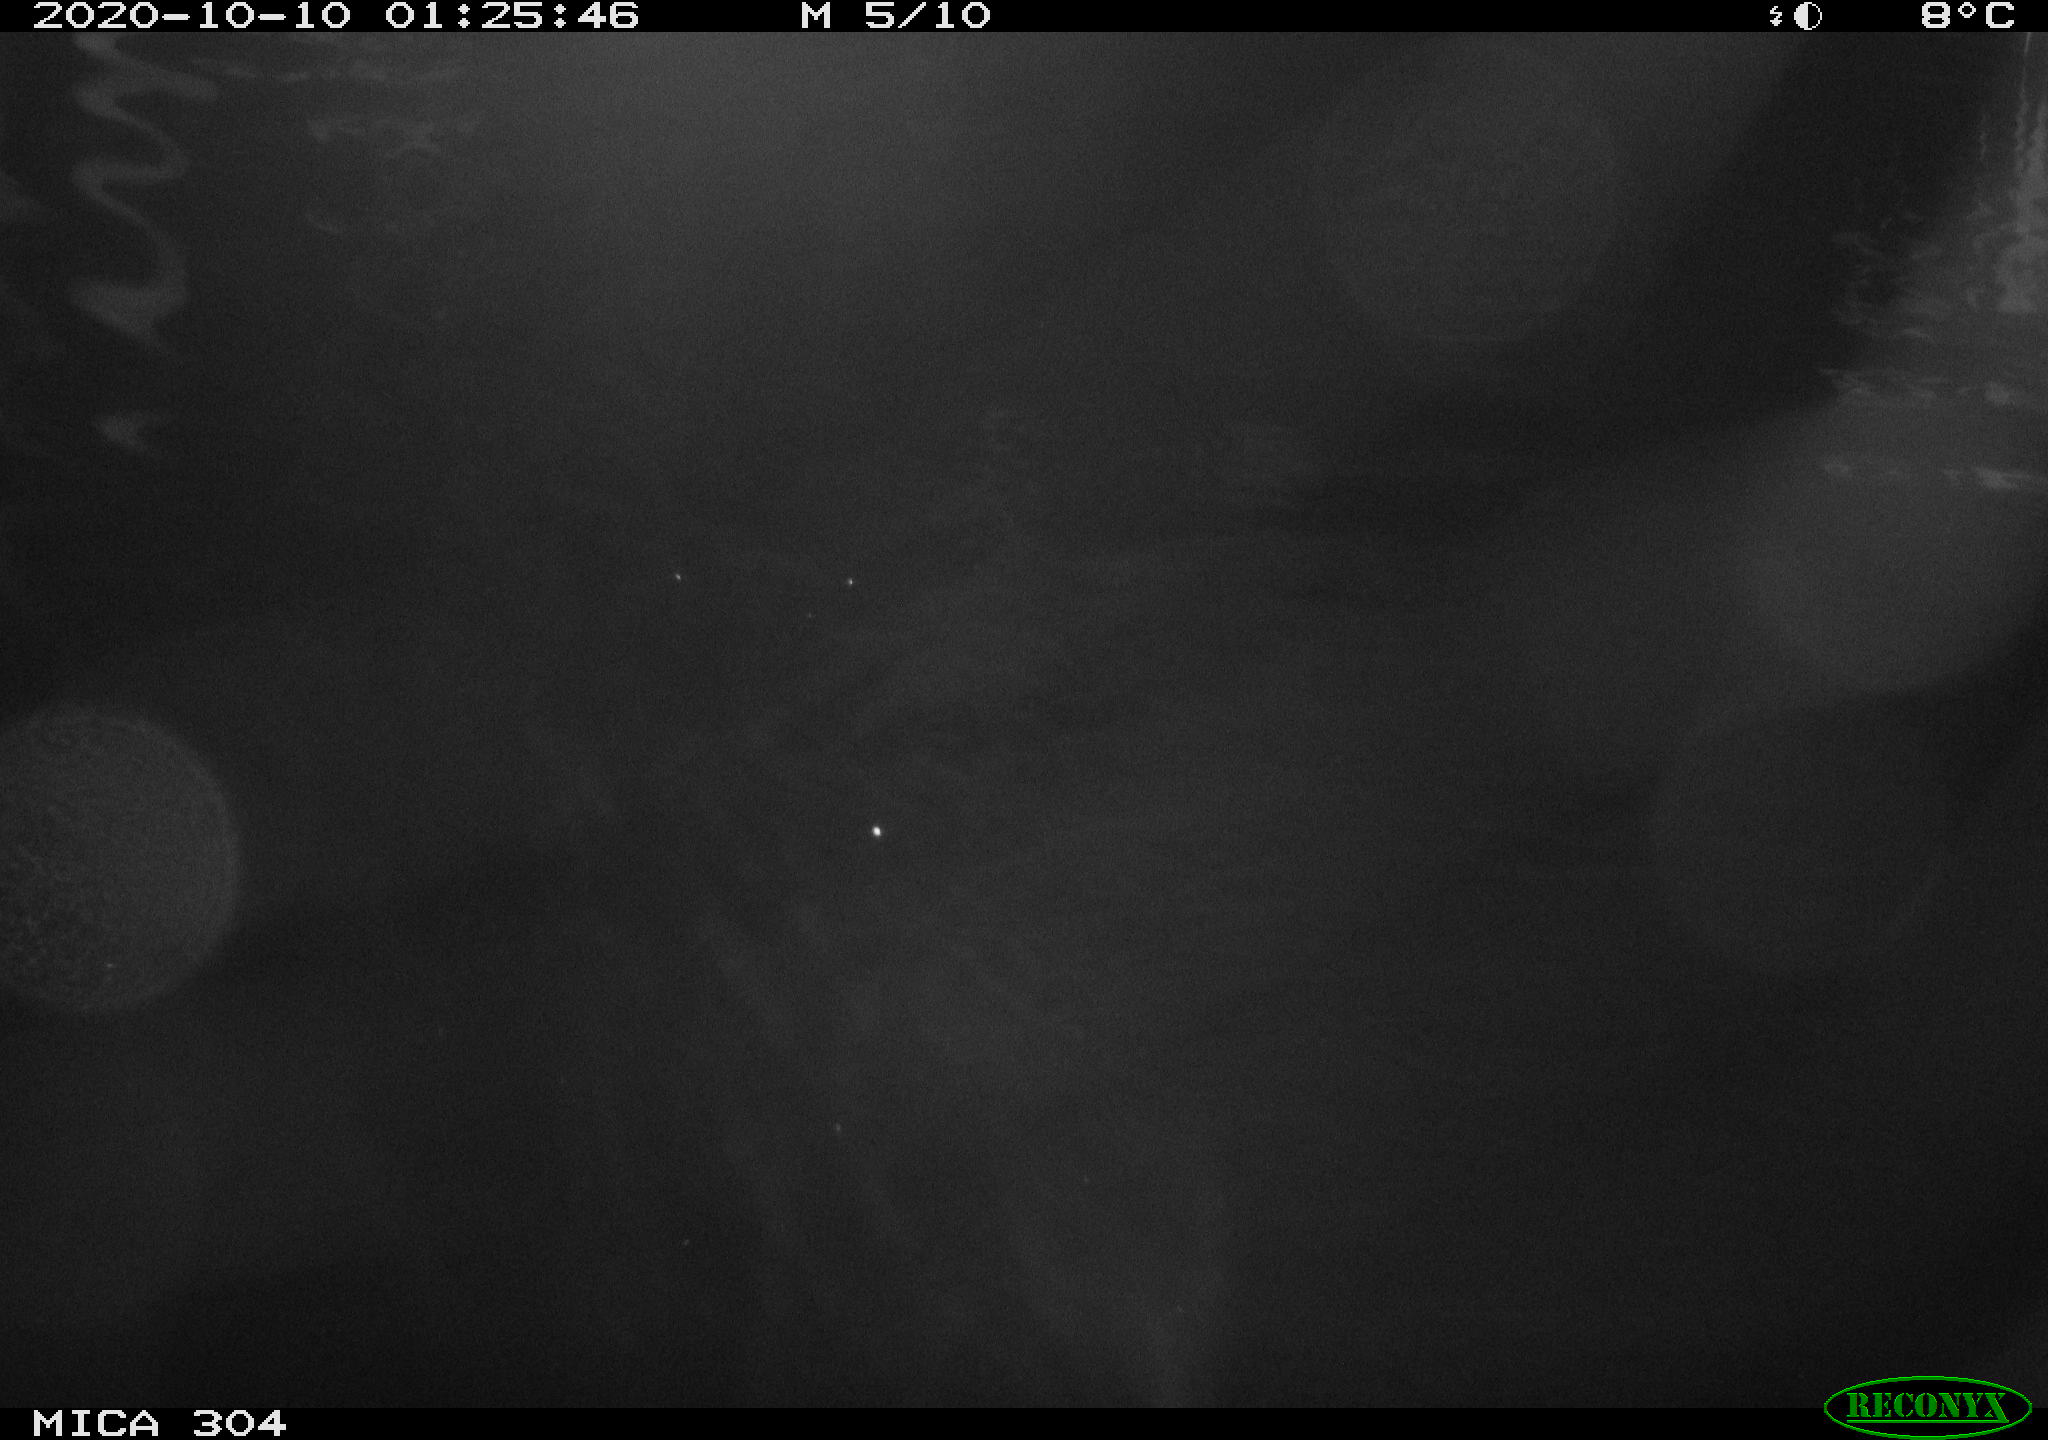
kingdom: Animalia
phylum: Chordata
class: Mammalia
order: Rodentia
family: Cricetidae
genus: Ondatra
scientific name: Ondatra zibethicus
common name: Muskrat
